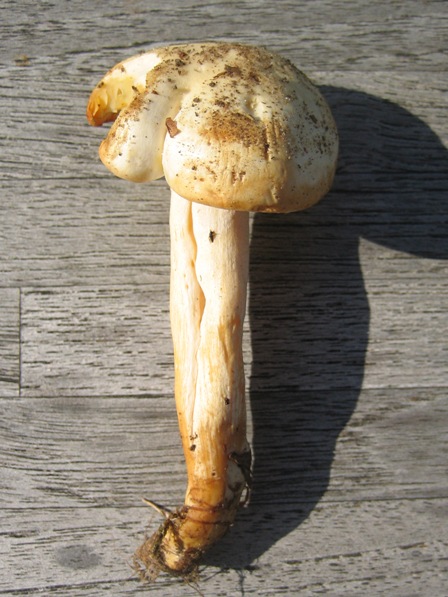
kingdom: Fungi
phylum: Basidiomycota
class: Agaricomycetes
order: Agaricales
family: Hygrophoraceae
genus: Hygrophorus
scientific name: Hygrophorus discoxanthus
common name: ildelugtende sneglehat
